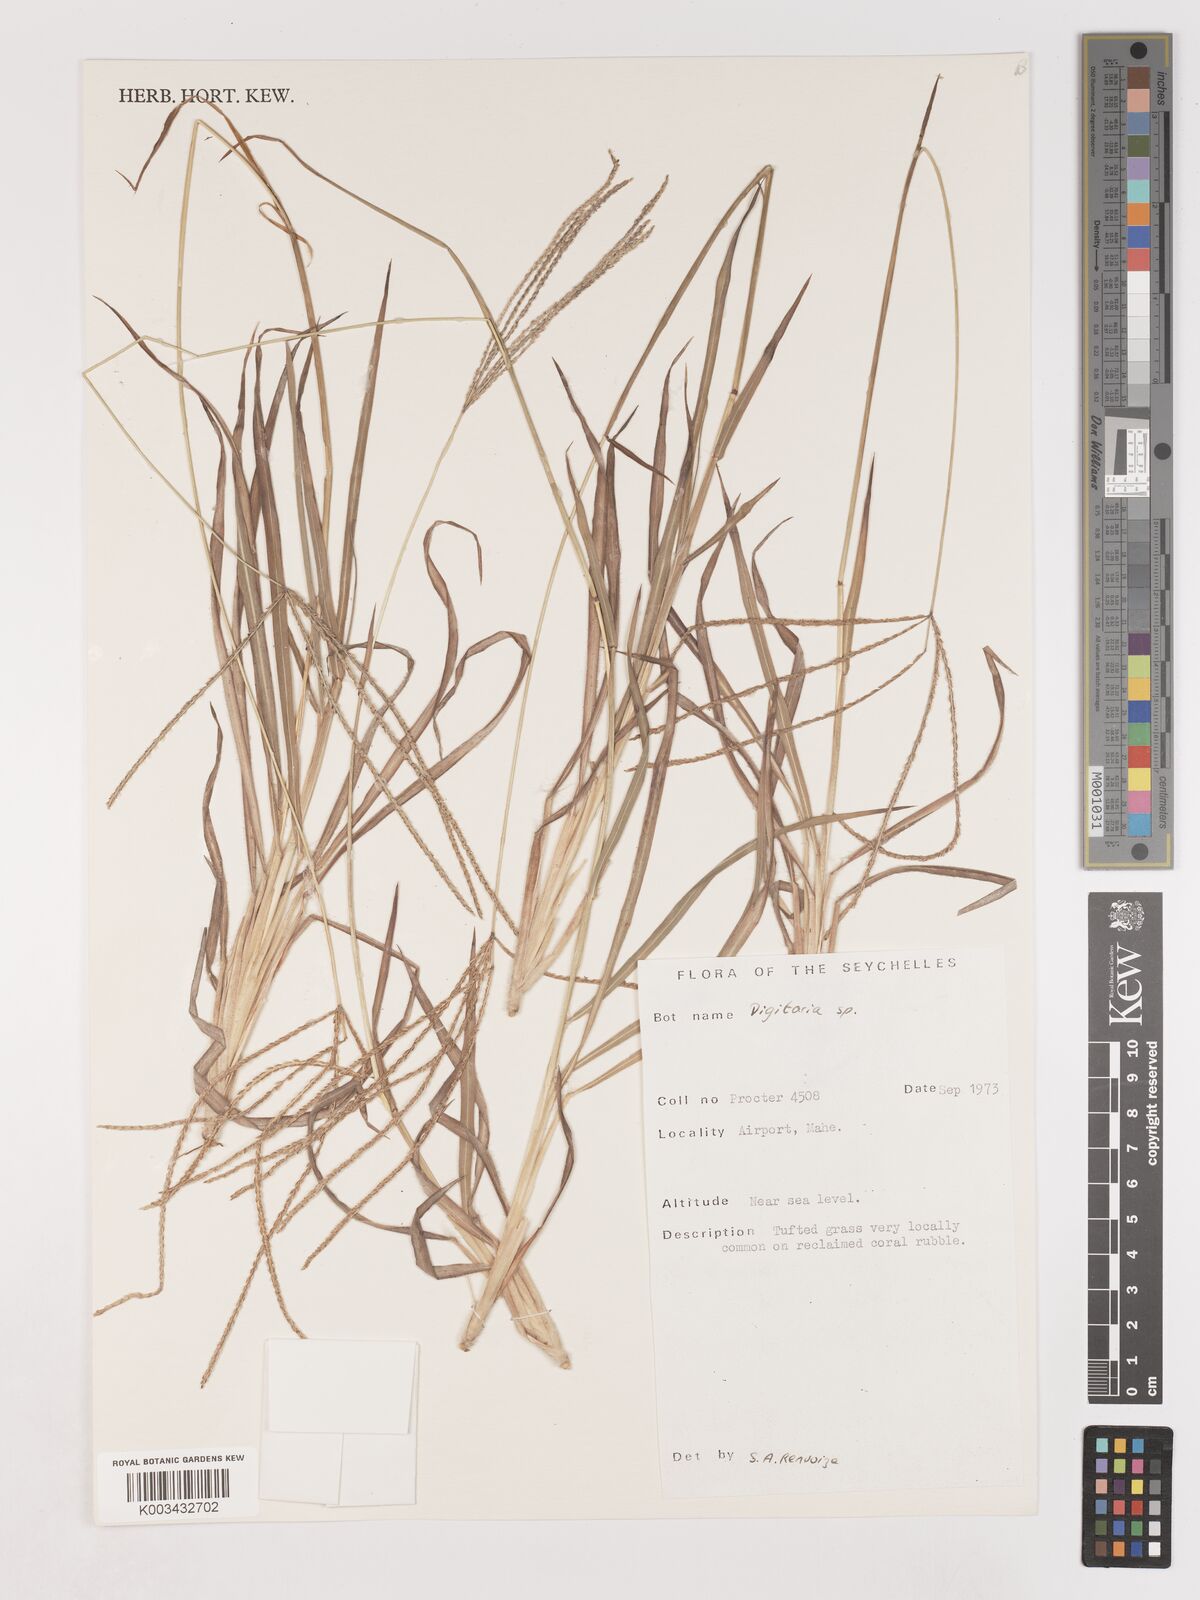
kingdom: Plantae
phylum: Tracheophyta
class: Liliopsida
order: Poales
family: Poaceae
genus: Digitaria
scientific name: Digitaria spec
